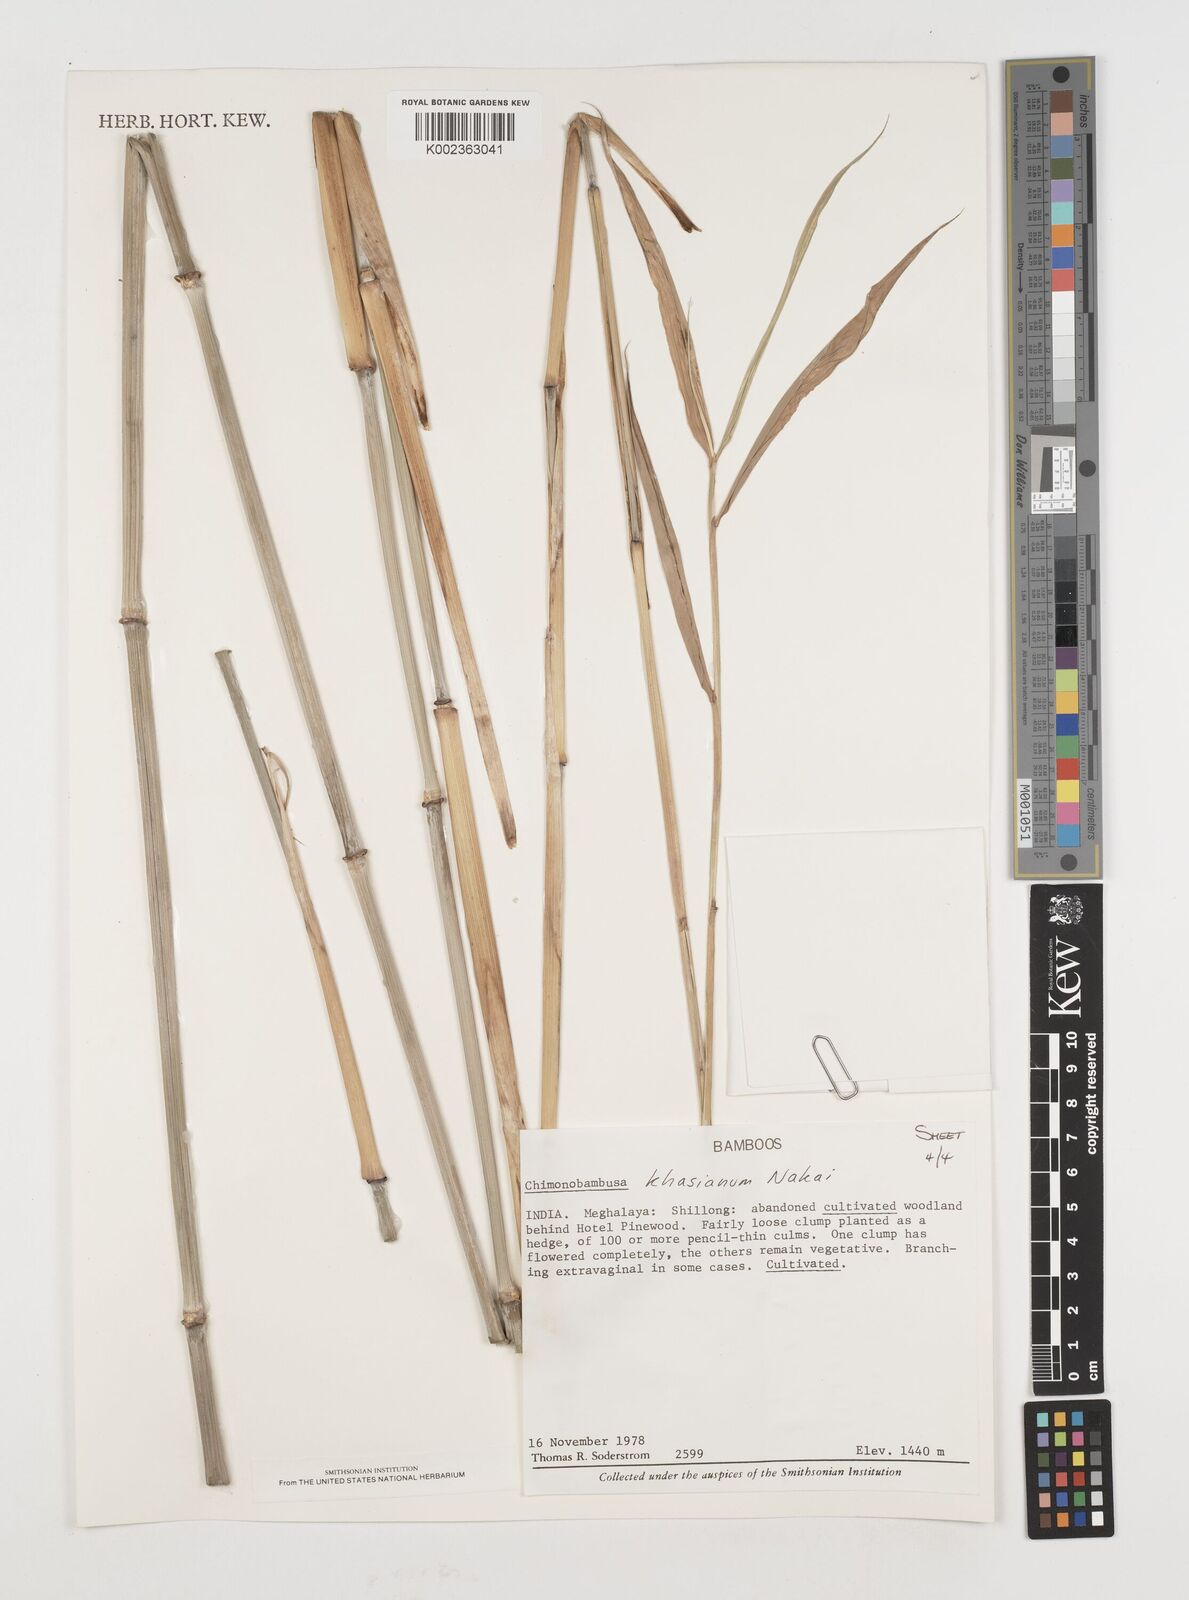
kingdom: Plantae
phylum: Tracheophyta
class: Liliopsida
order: Poales
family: Poaceae
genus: Drepanostachyum
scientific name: Drepanostachyum khasianum
